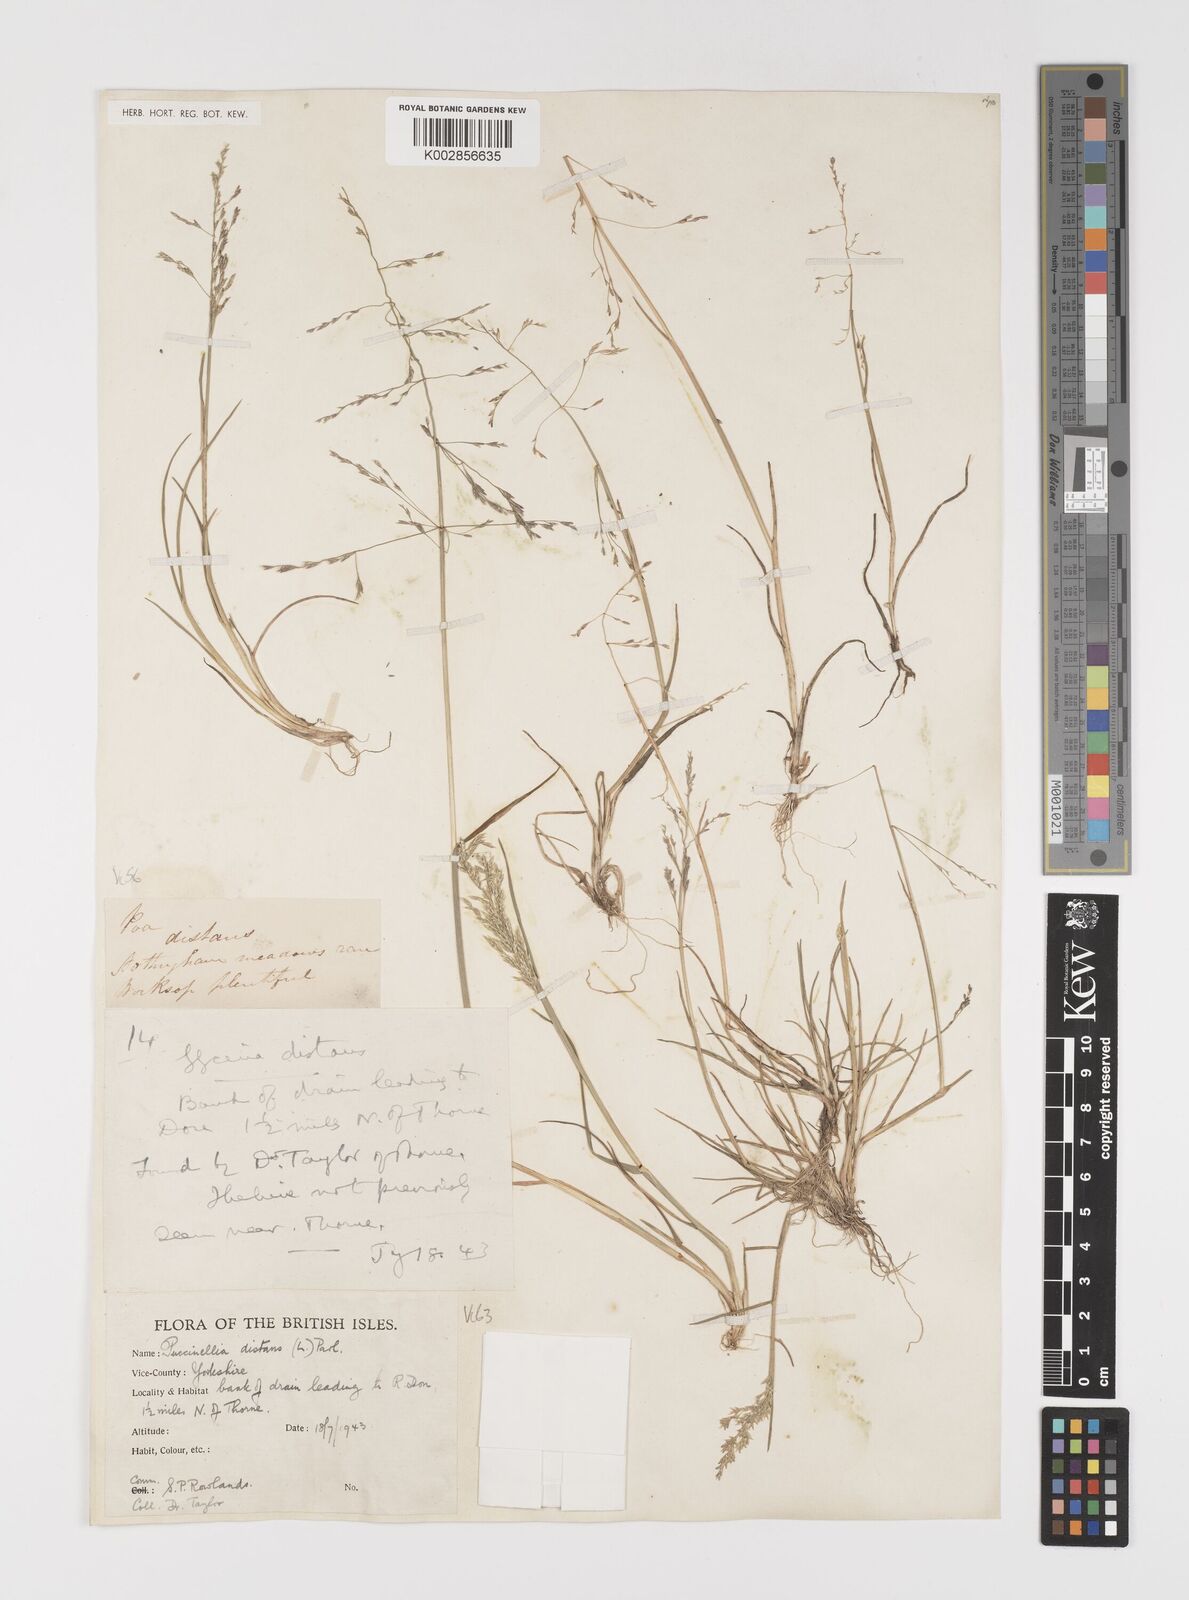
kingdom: Plantae
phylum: Tracheophyta
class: Liliopsida
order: Poales
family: Poaceae
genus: Puccinellia
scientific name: Puccinellia distans
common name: Weeping alkaligrass
